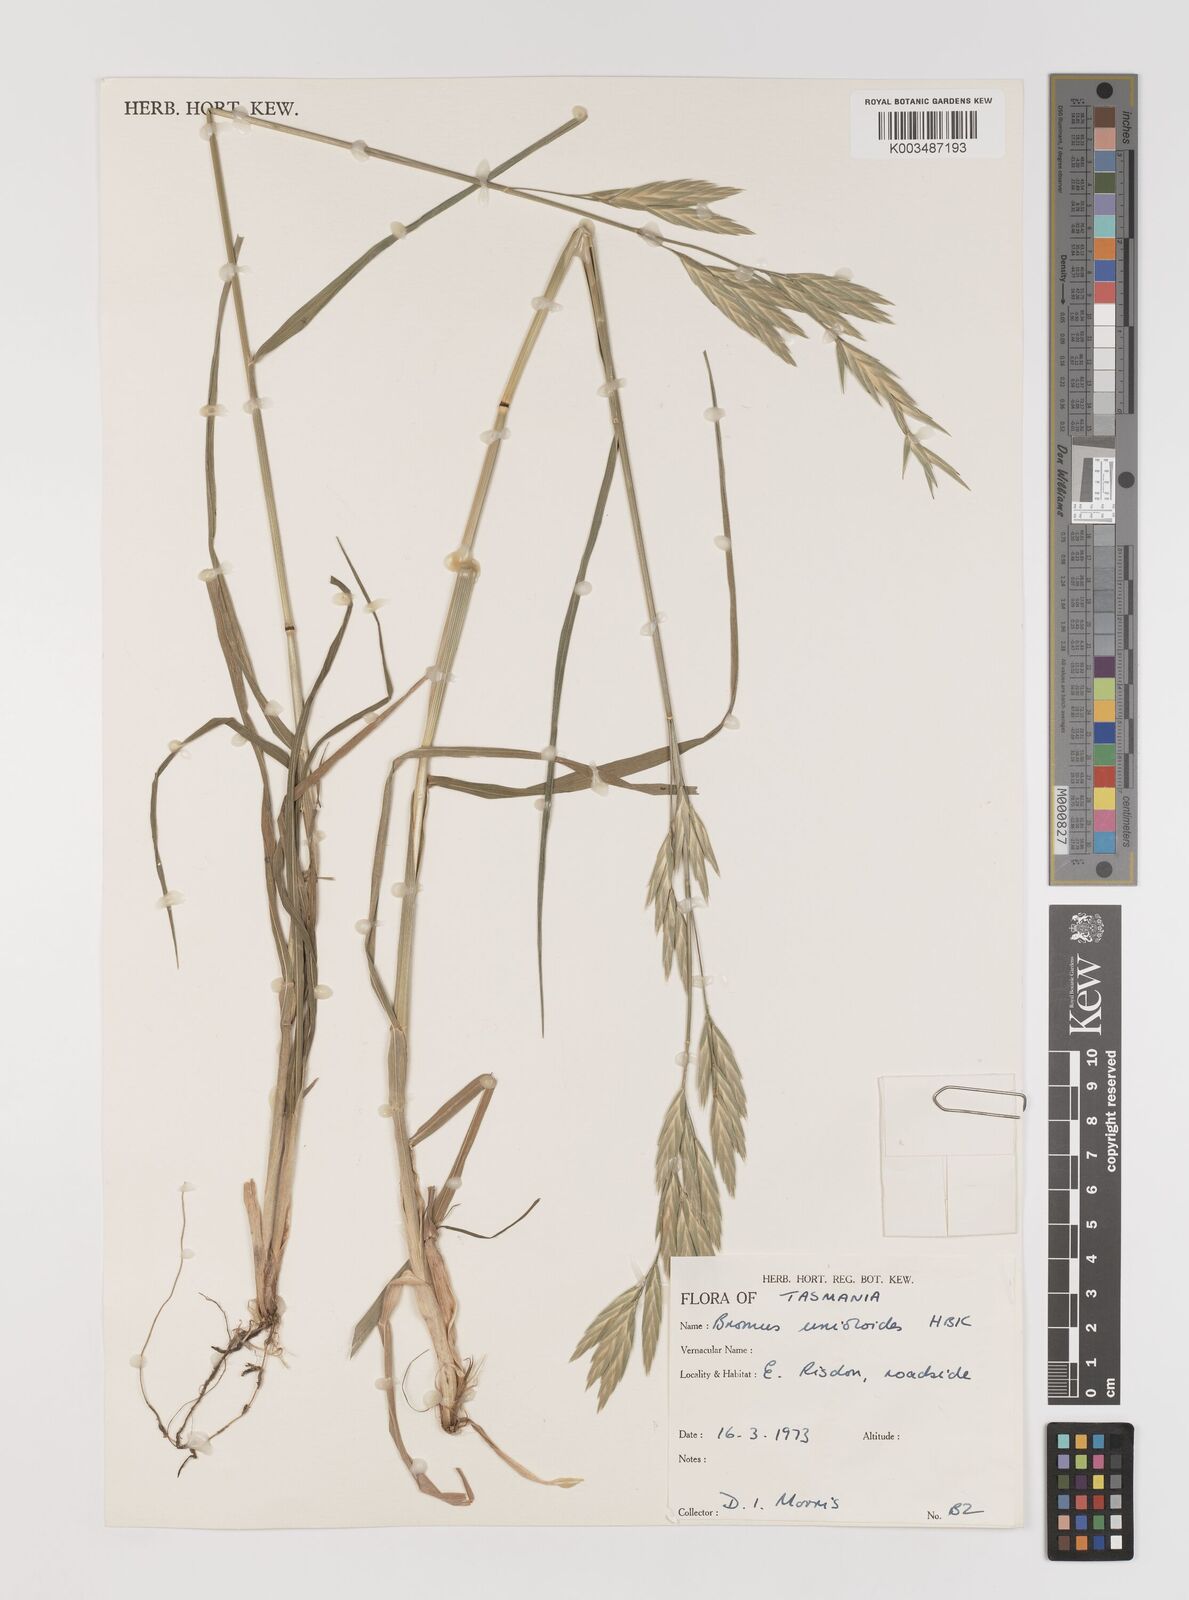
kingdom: Plantae
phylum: Tracheophyta
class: Liliopsida
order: Poales
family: Poaceae
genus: Bromus
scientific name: Bromus catharticus
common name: Rescuegrass
